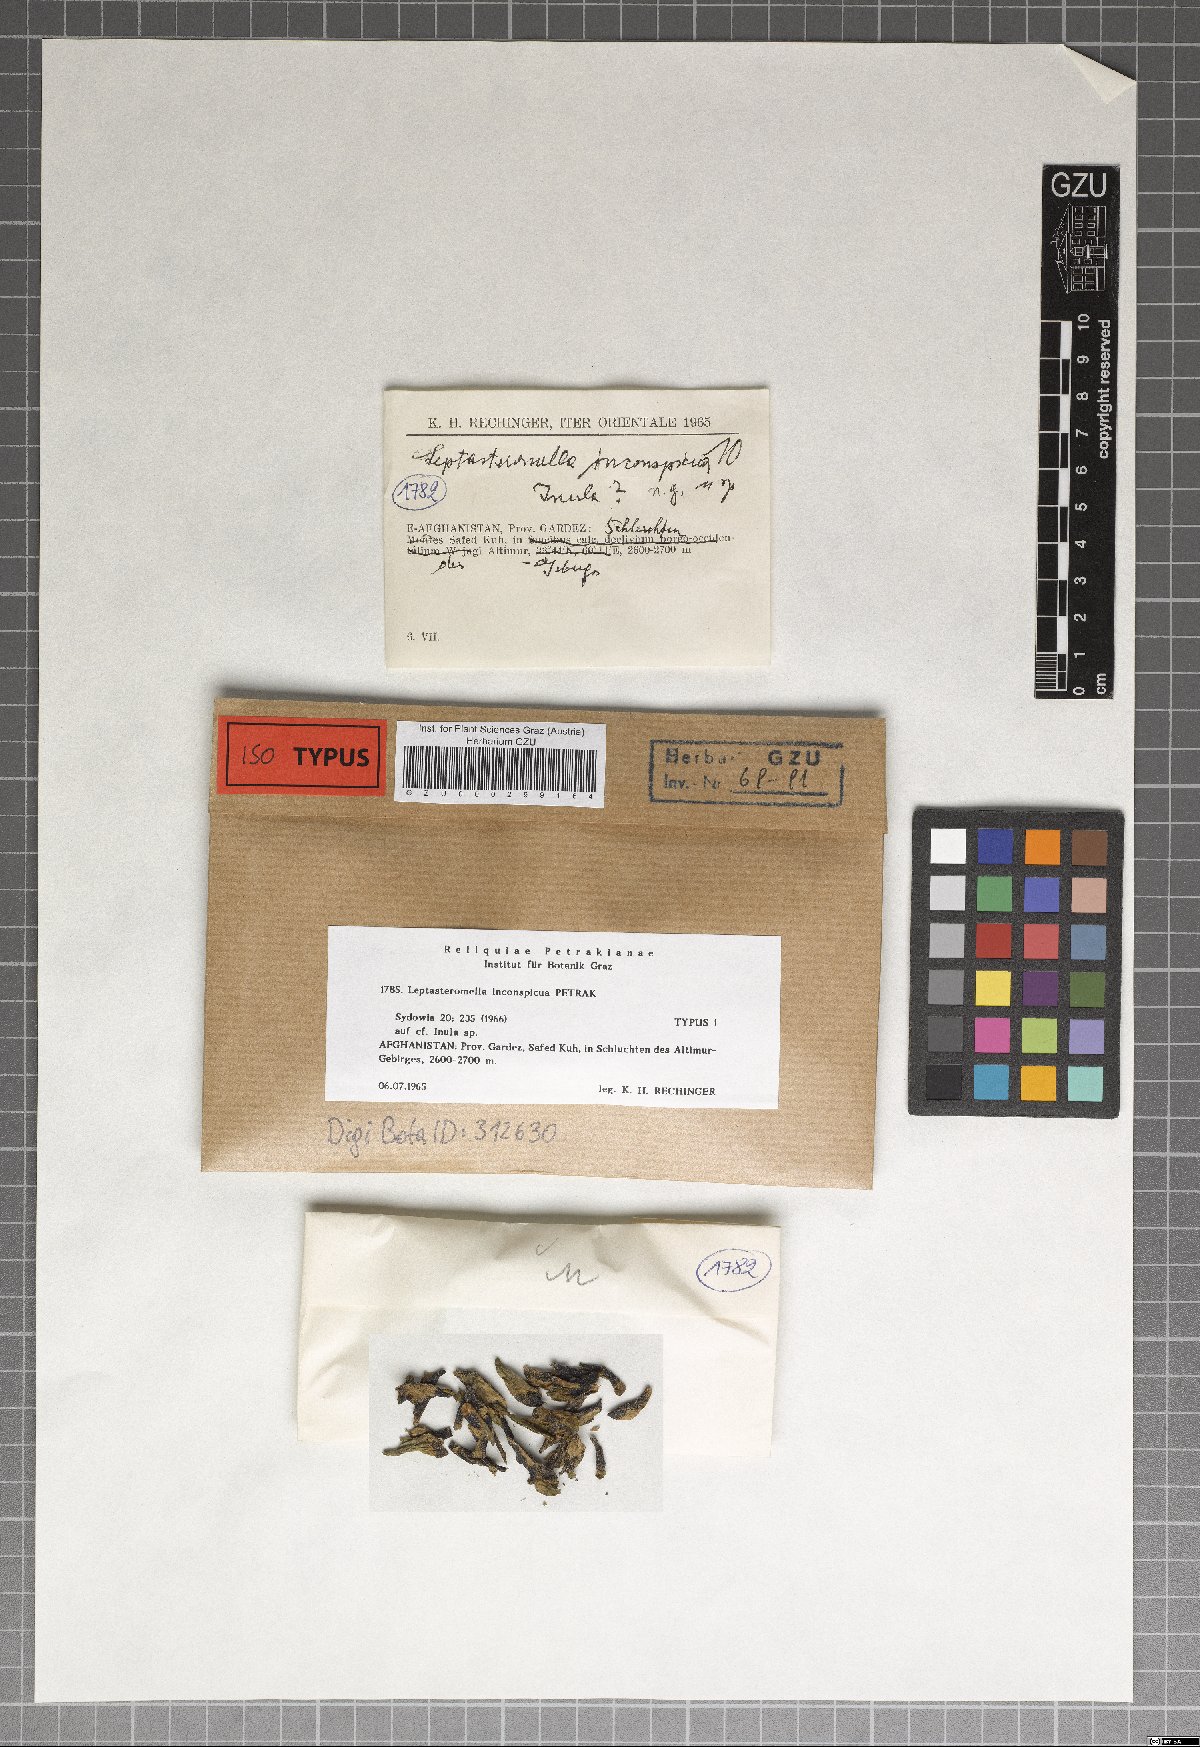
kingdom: Fungi
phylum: Ascomycota
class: Dothideomycetes
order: Botryosphaeriales
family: Botryosphaeriaceae
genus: Leptasteromella
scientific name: Leptasteromella inconspicua
